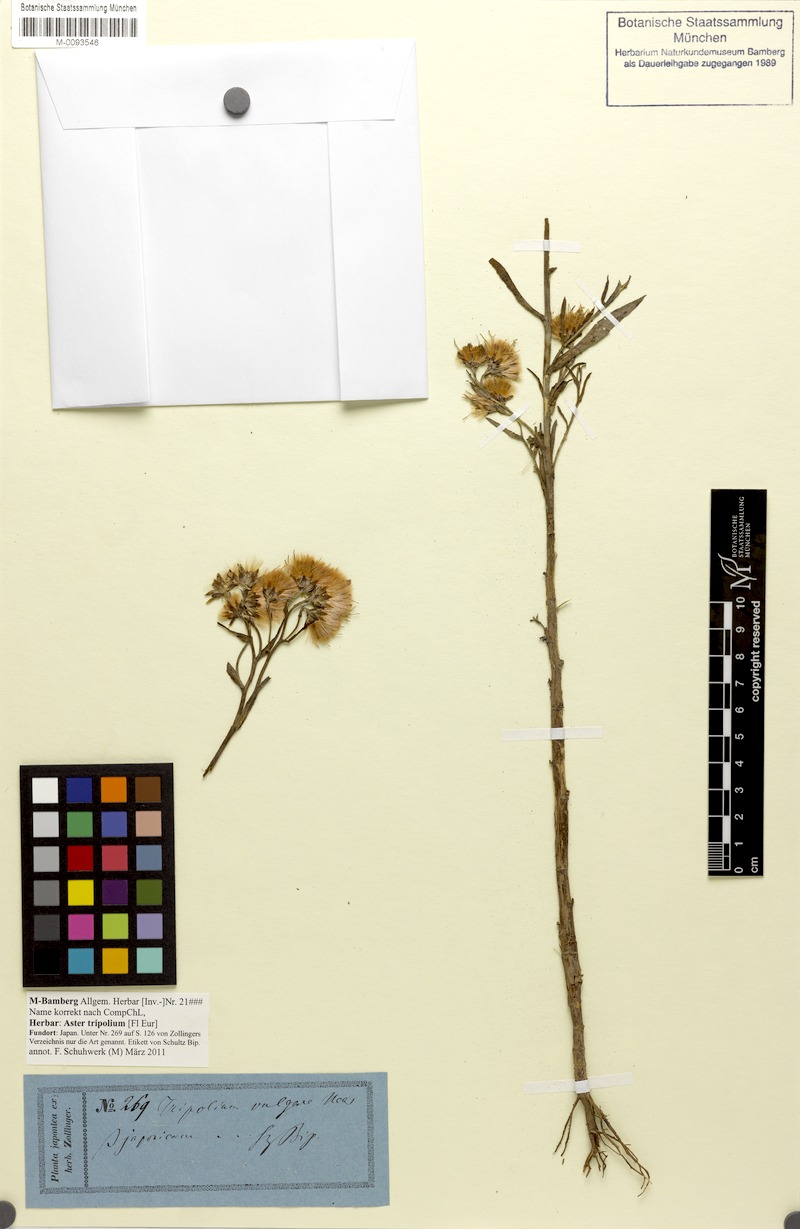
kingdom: Plantae
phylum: Tracheophyta
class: Magnoliopsida
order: Asterales
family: Asteraceae
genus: Tripolium
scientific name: Tripolium pannonicum
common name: Sea aster
